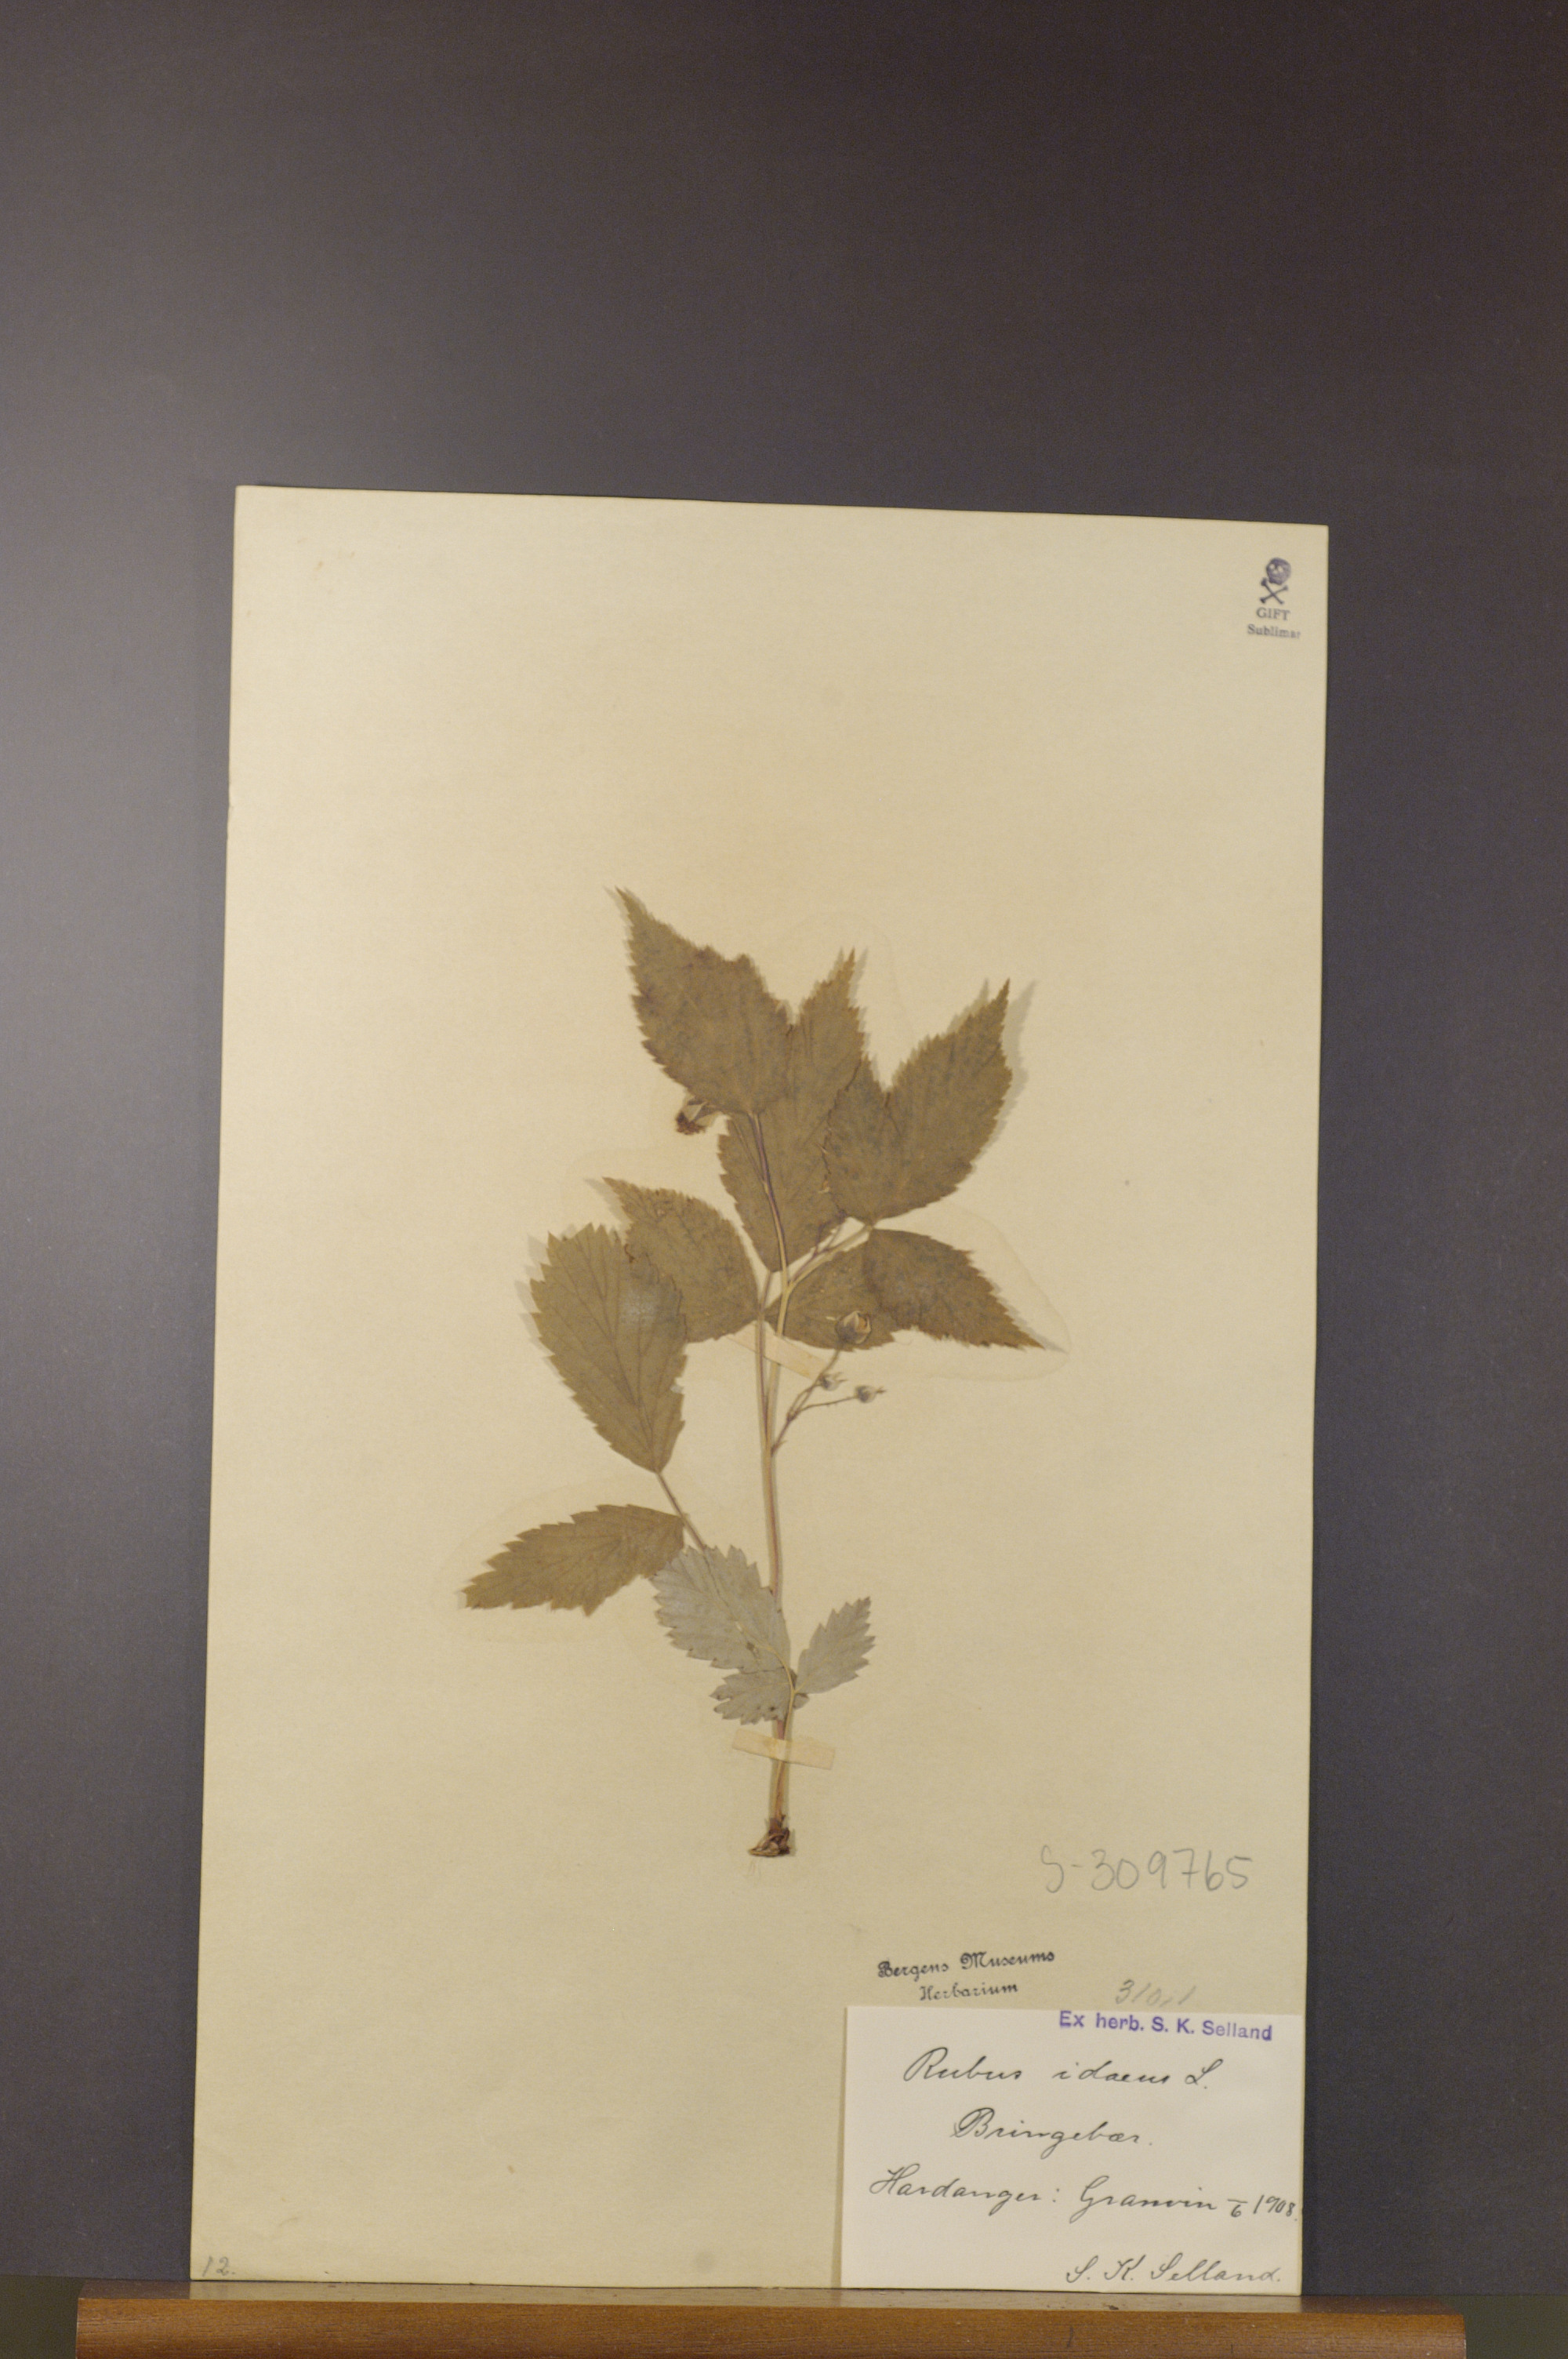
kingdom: Plantae
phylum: Tracheophyta
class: Magnoliopsida
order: Rosales
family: Rosaceae
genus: Rubus
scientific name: Rubus idaeus
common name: Raspberry
